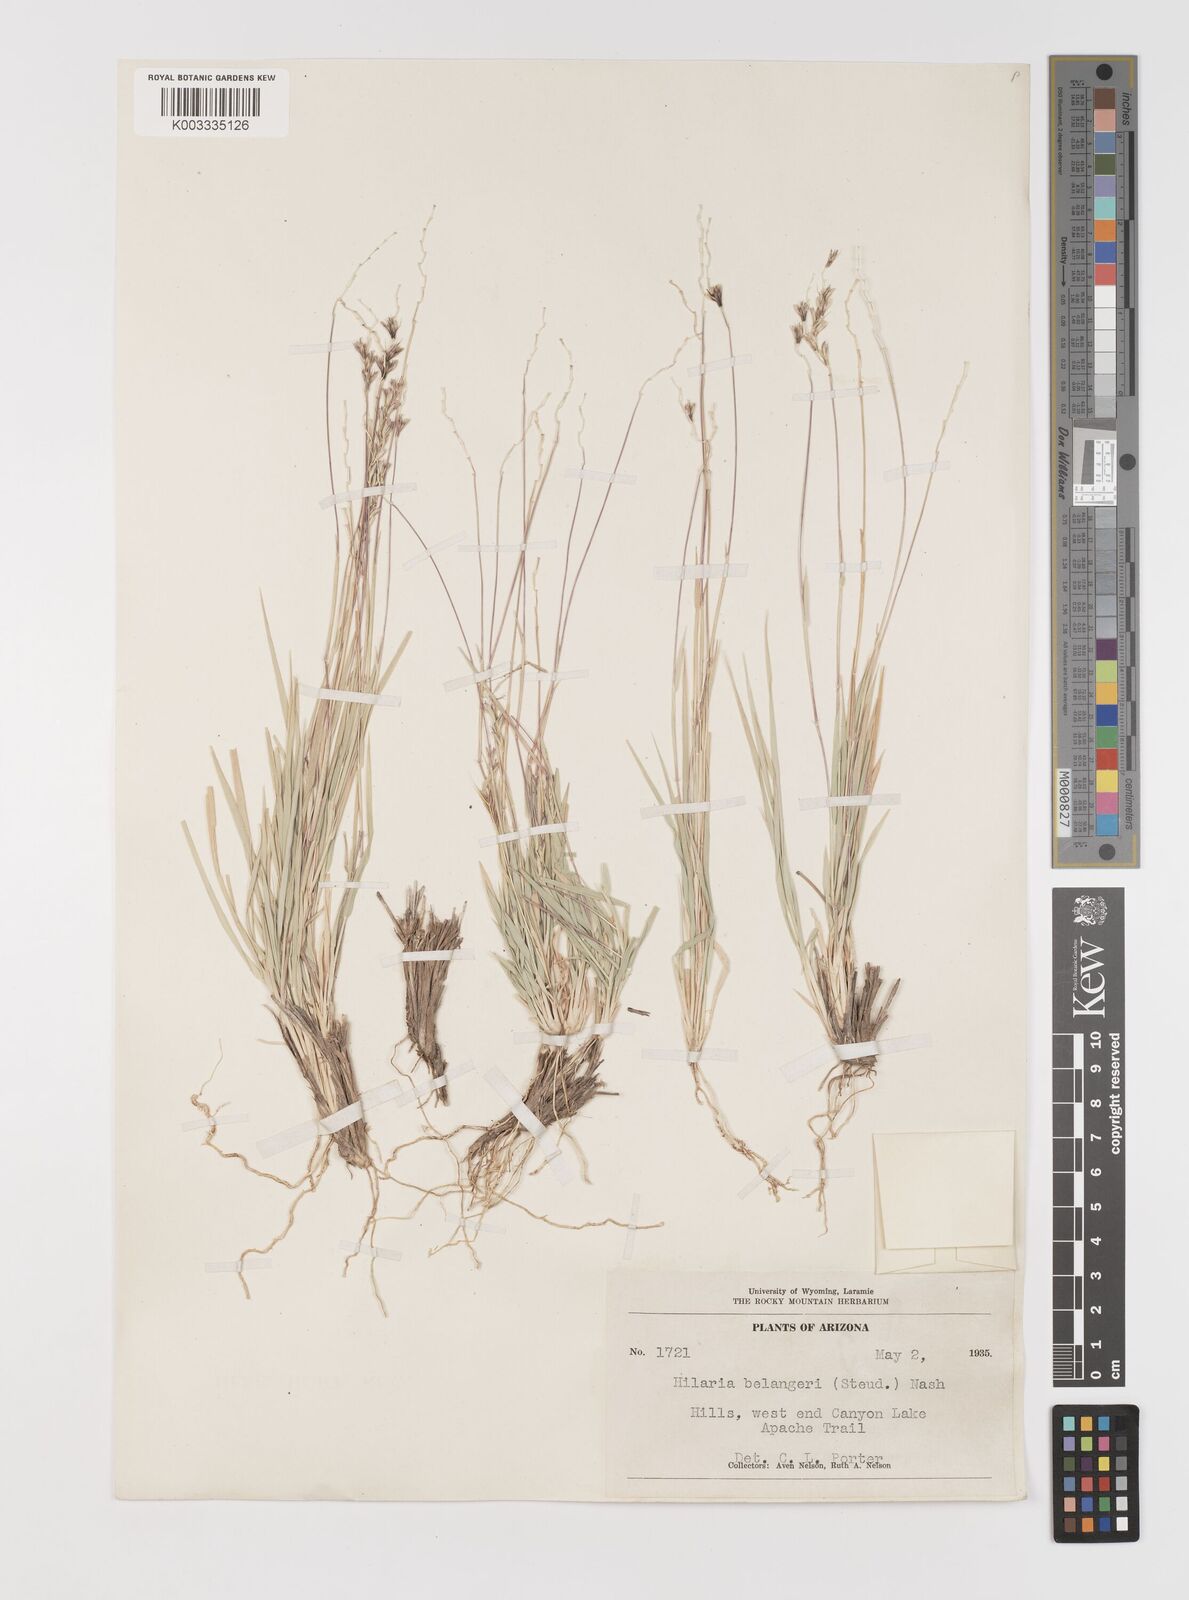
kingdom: Plantae
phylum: Tracheophyta
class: Liliopsida
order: Poales
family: Poaceae
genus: Hilaria
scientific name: Hilaria belangeri
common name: Curly-mesquite
